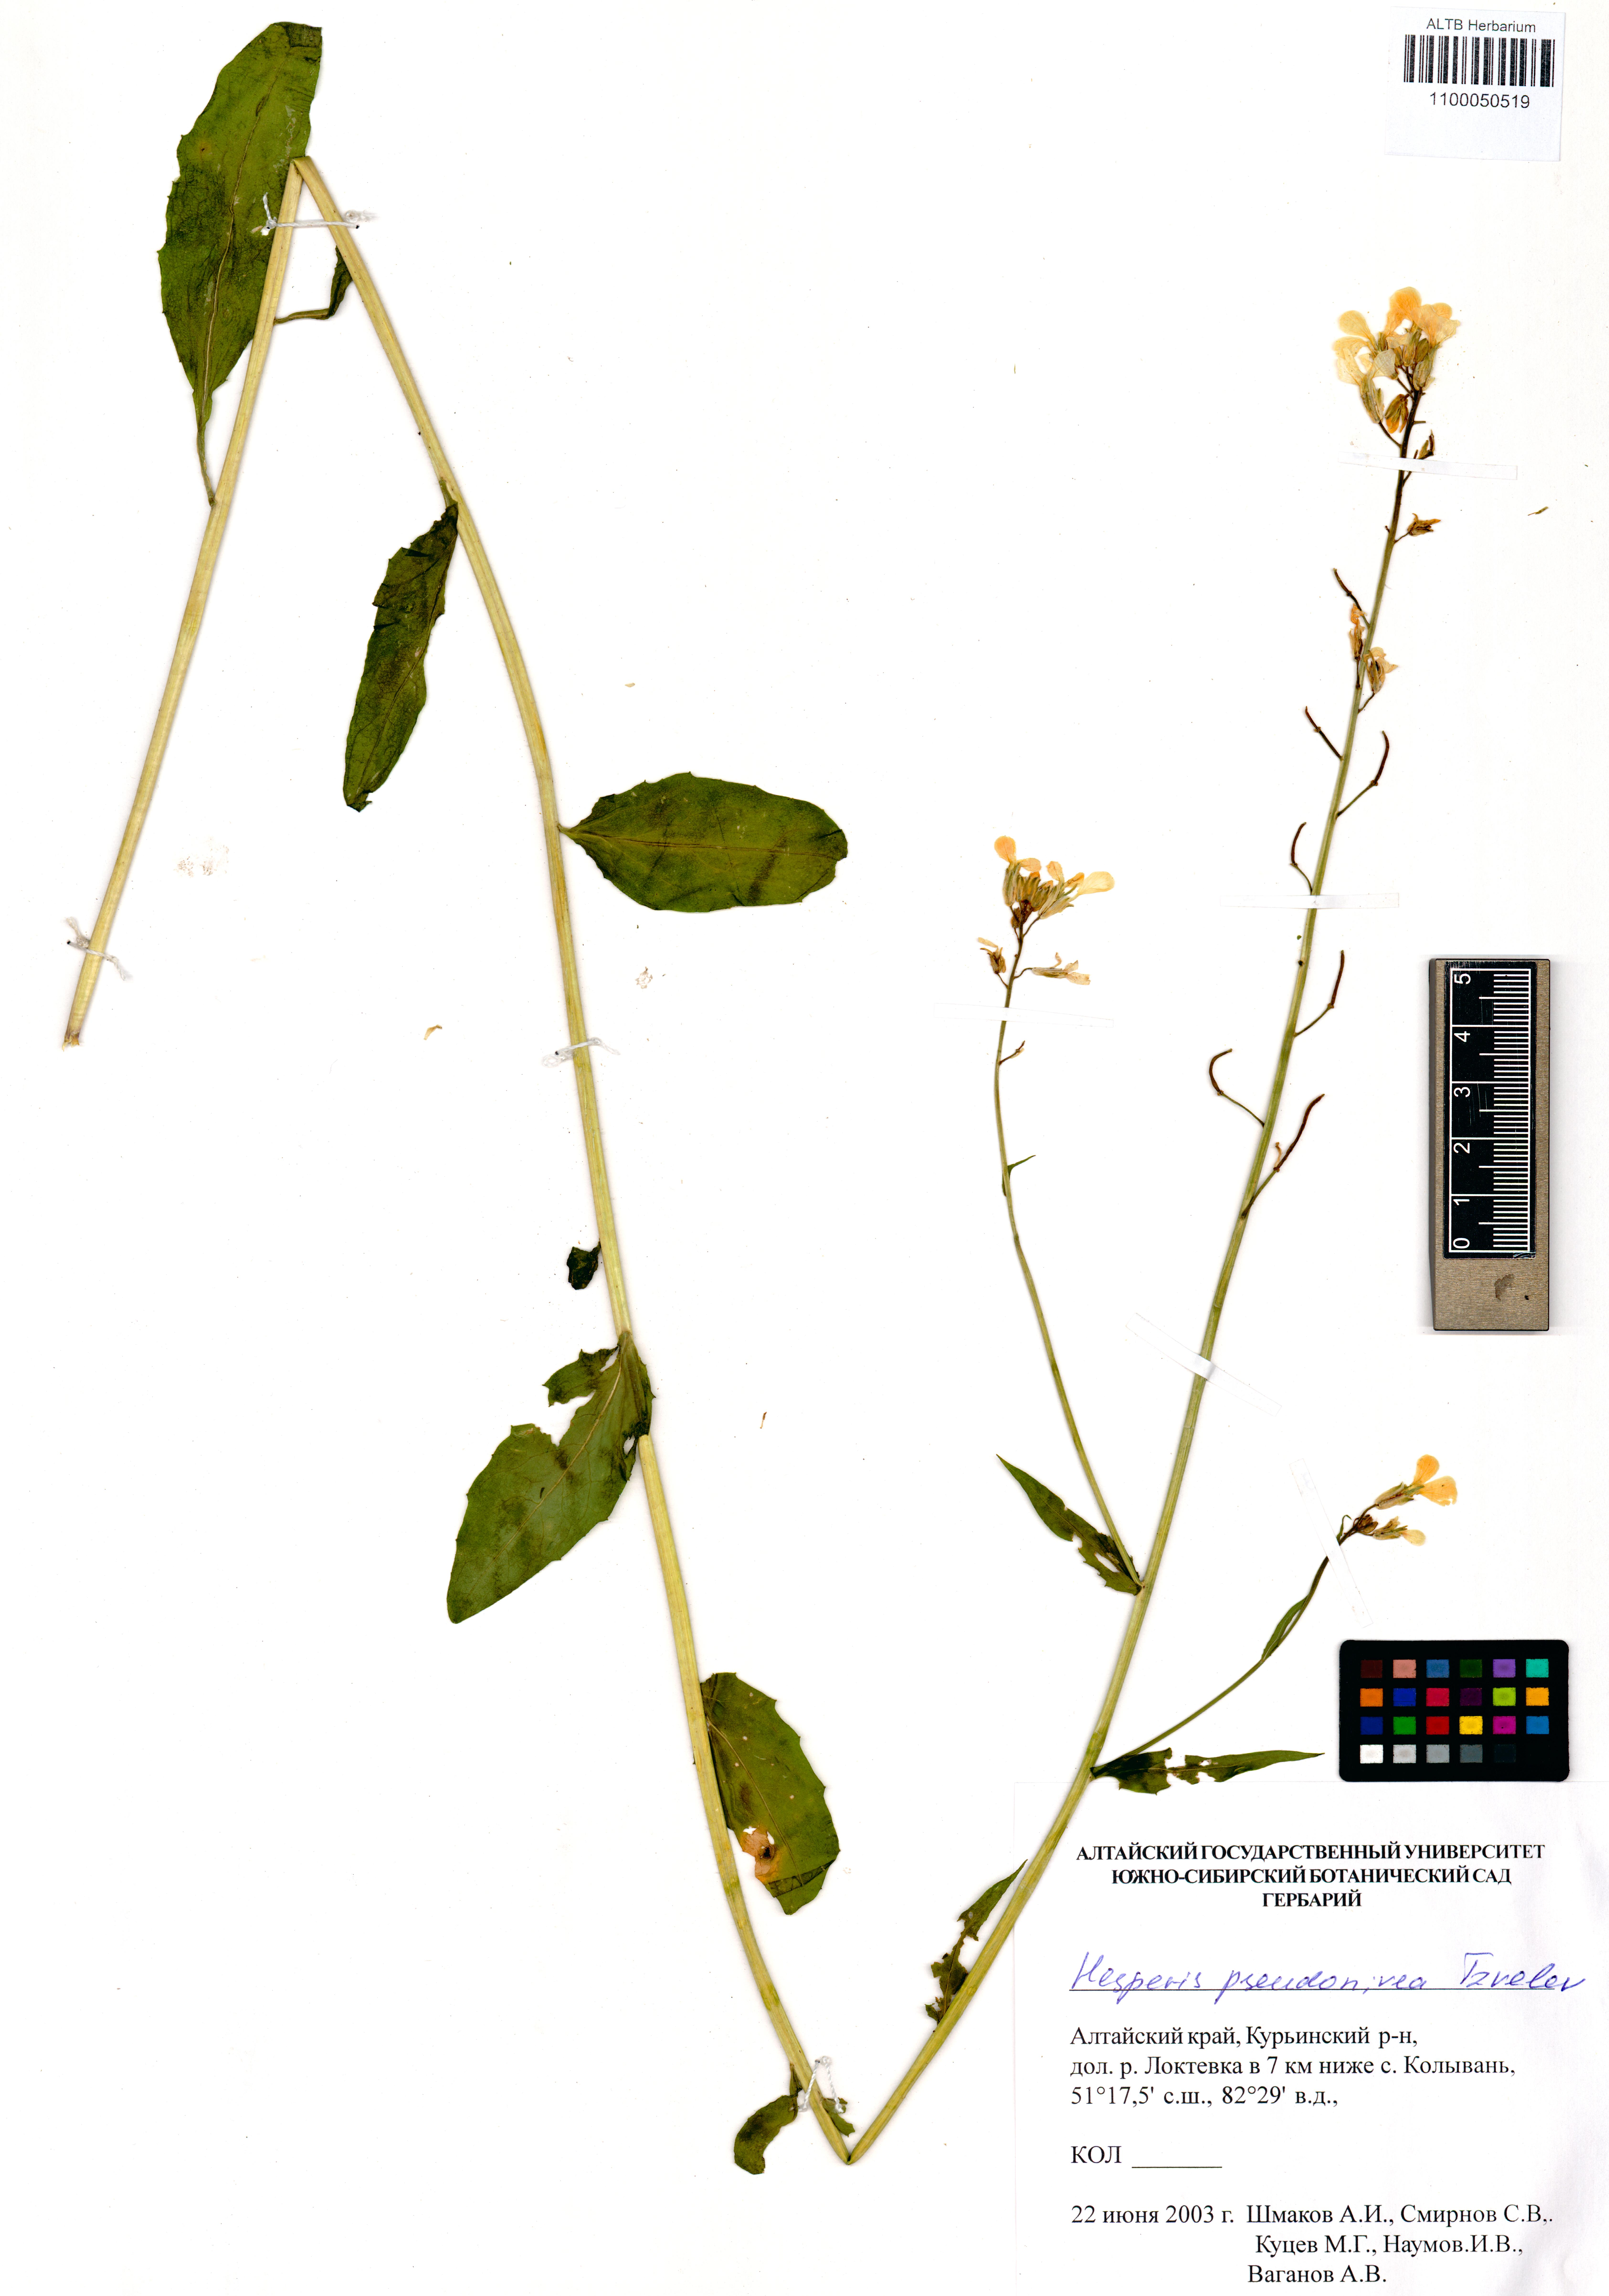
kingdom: Plantae
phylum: Tracheophyta
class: Magnoliopsida
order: Brassicales
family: Brassicaceae
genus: Hesperis
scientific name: Hesperis sibirica
